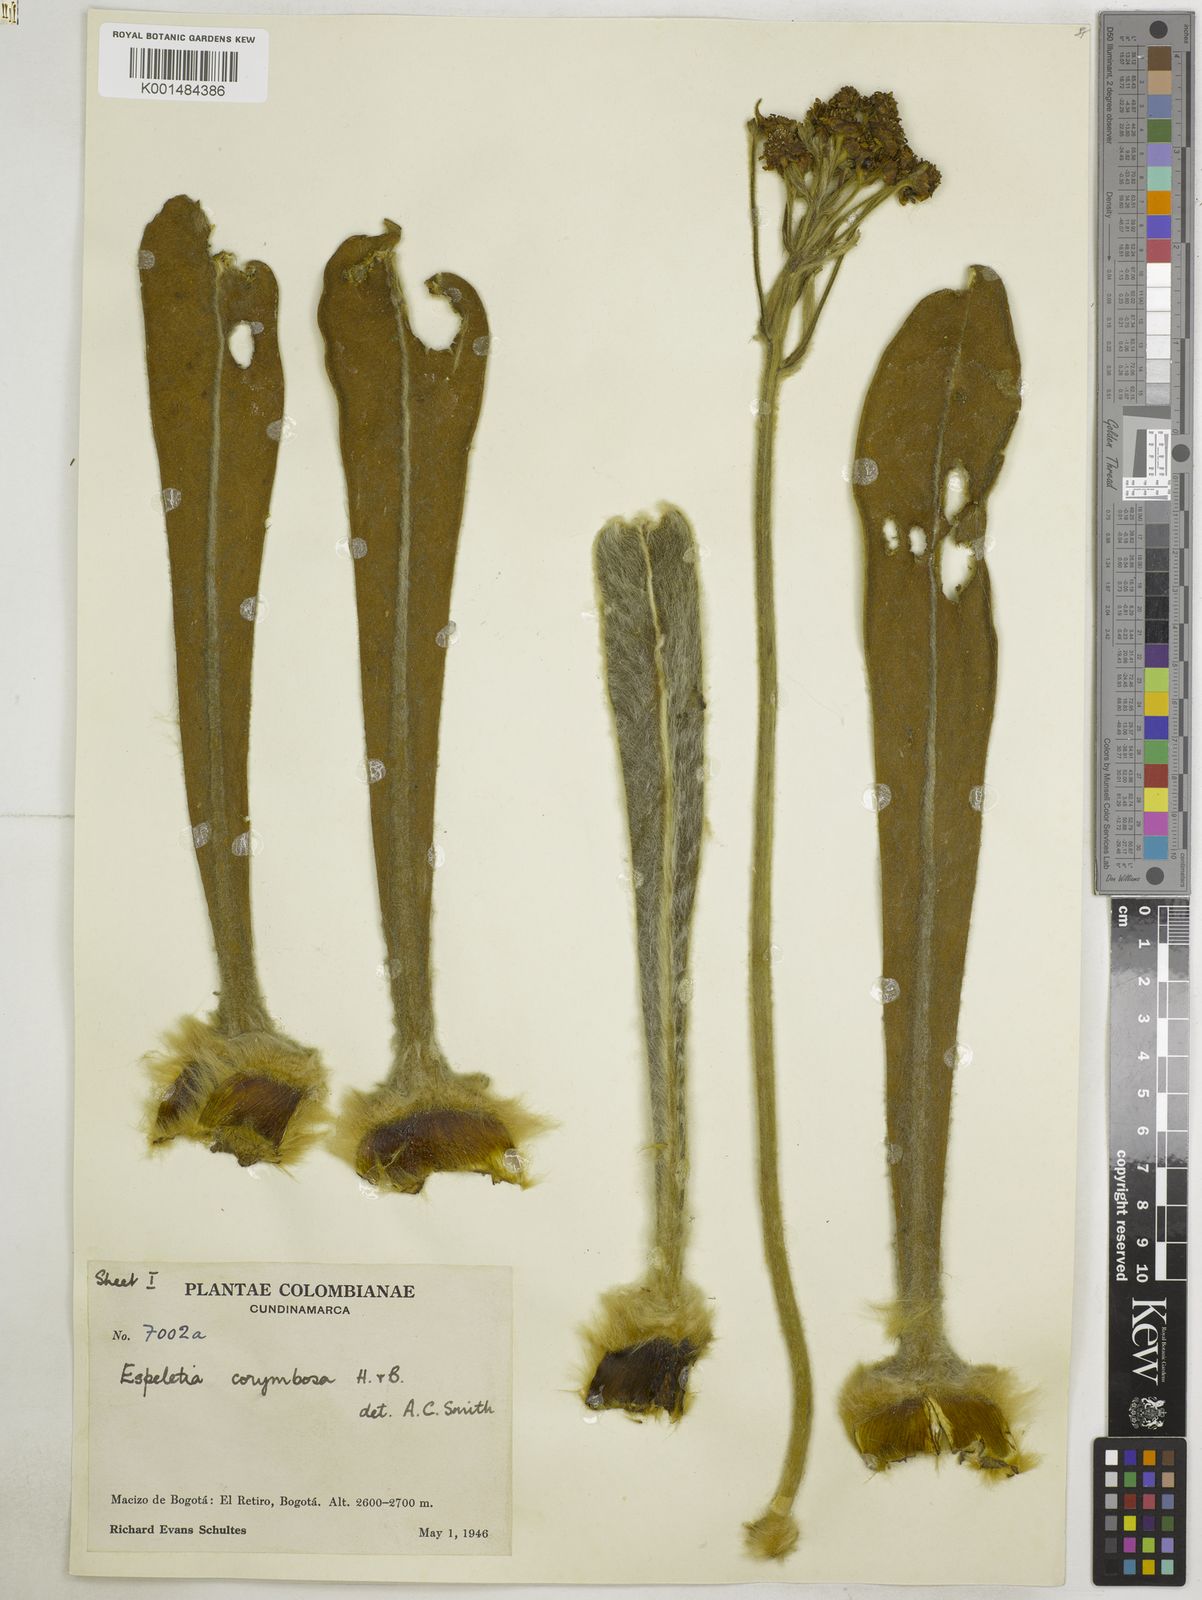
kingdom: Plantae
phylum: Tracheophyta
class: Magnoliopsida
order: Asterales
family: Asteraceae
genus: Espeletia
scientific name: Espeletia corymbosa
